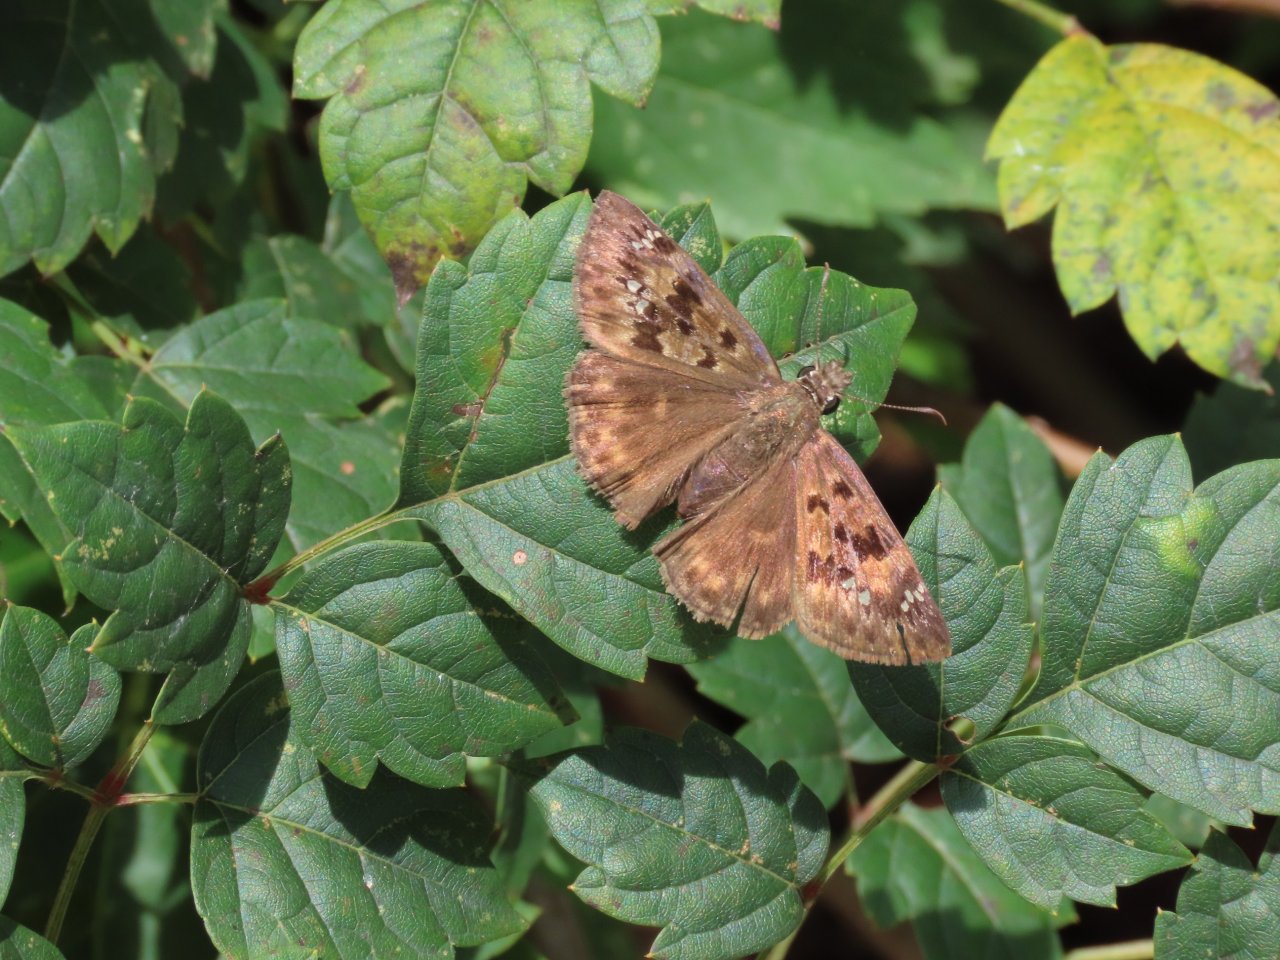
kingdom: Animalia
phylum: Arthropoda
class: Insecta
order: Lepidoptera
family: Hesperiidae
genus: Erynnis
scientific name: Erynnis zarucco
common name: Zarucco Duskywing
